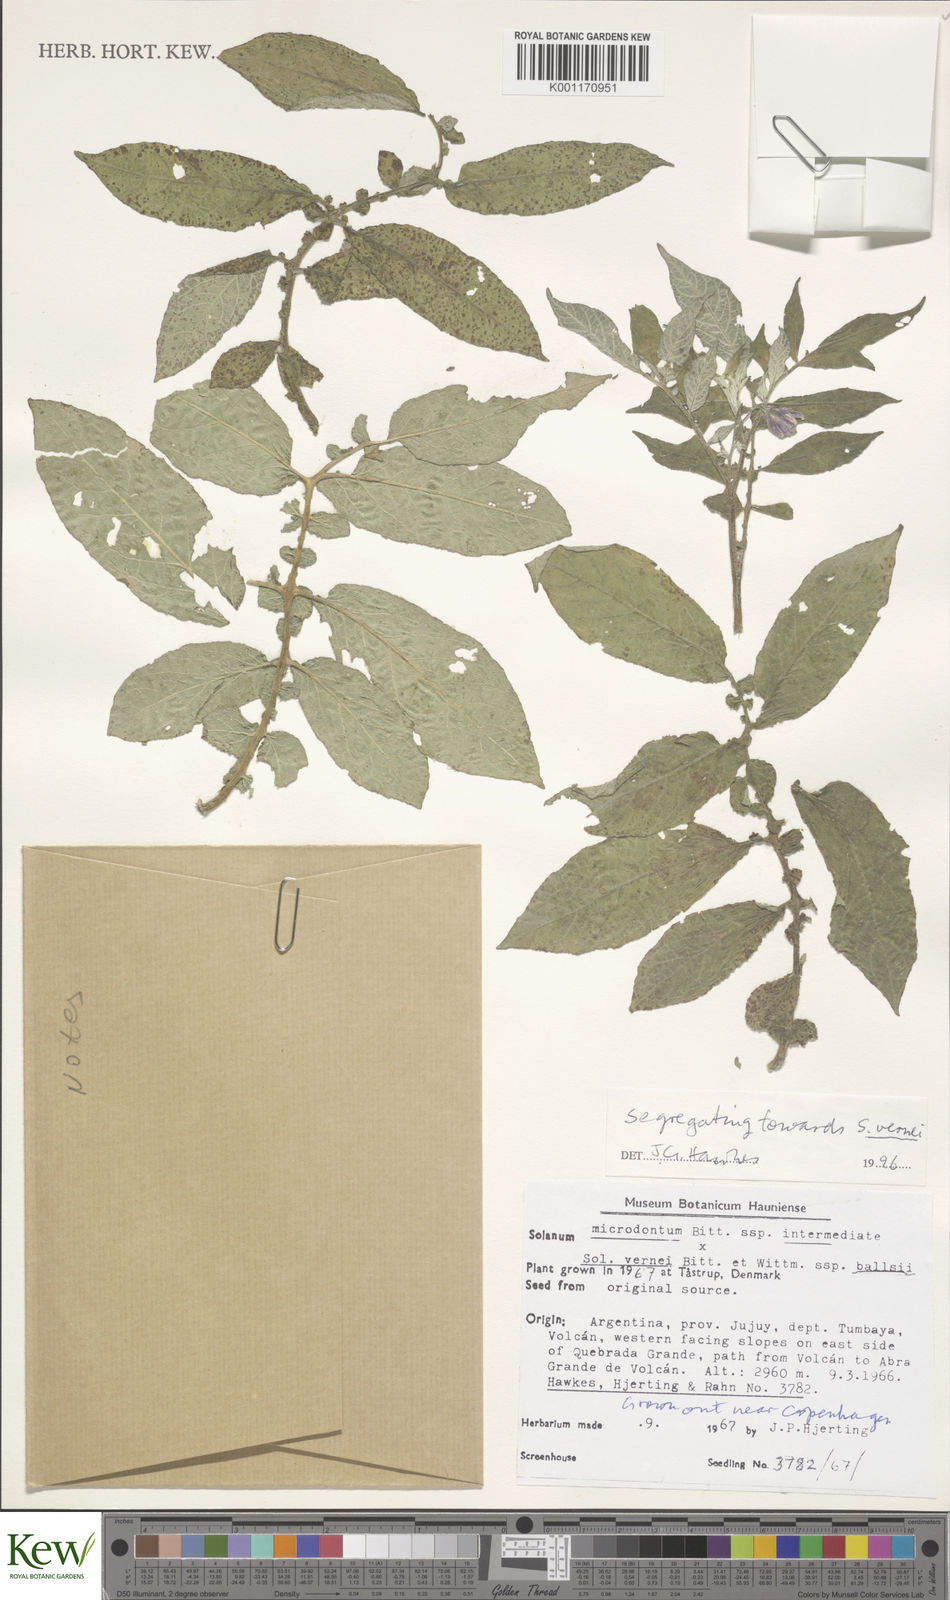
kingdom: Plantae
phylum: Tracheophyta
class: Magnoliopsida
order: Solanales
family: Solanaceae
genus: Solanum
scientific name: Solanum vernei
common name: Purple potato
